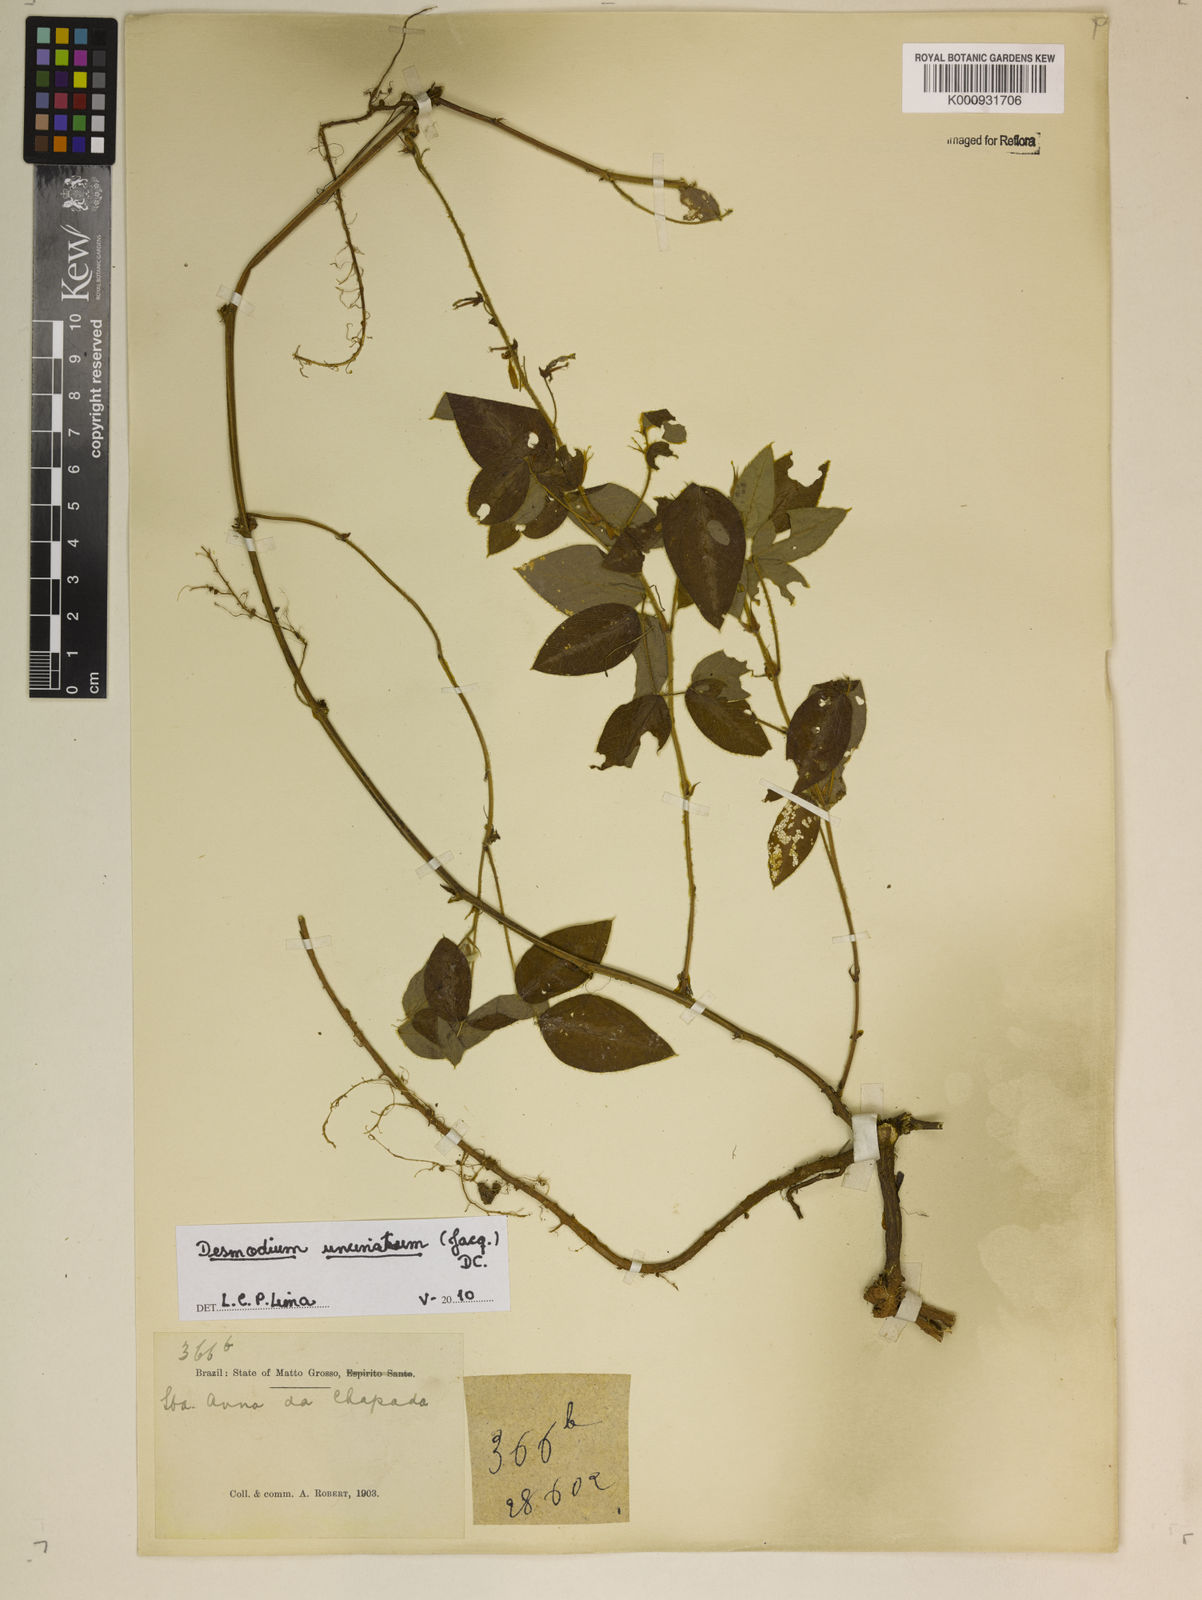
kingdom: Plantae
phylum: Tracheophyta
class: Magnoliopsida
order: Fabales
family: Fabaceae
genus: Desmodium
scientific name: Desmodium uncinatum
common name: Silverleaf desmodium
